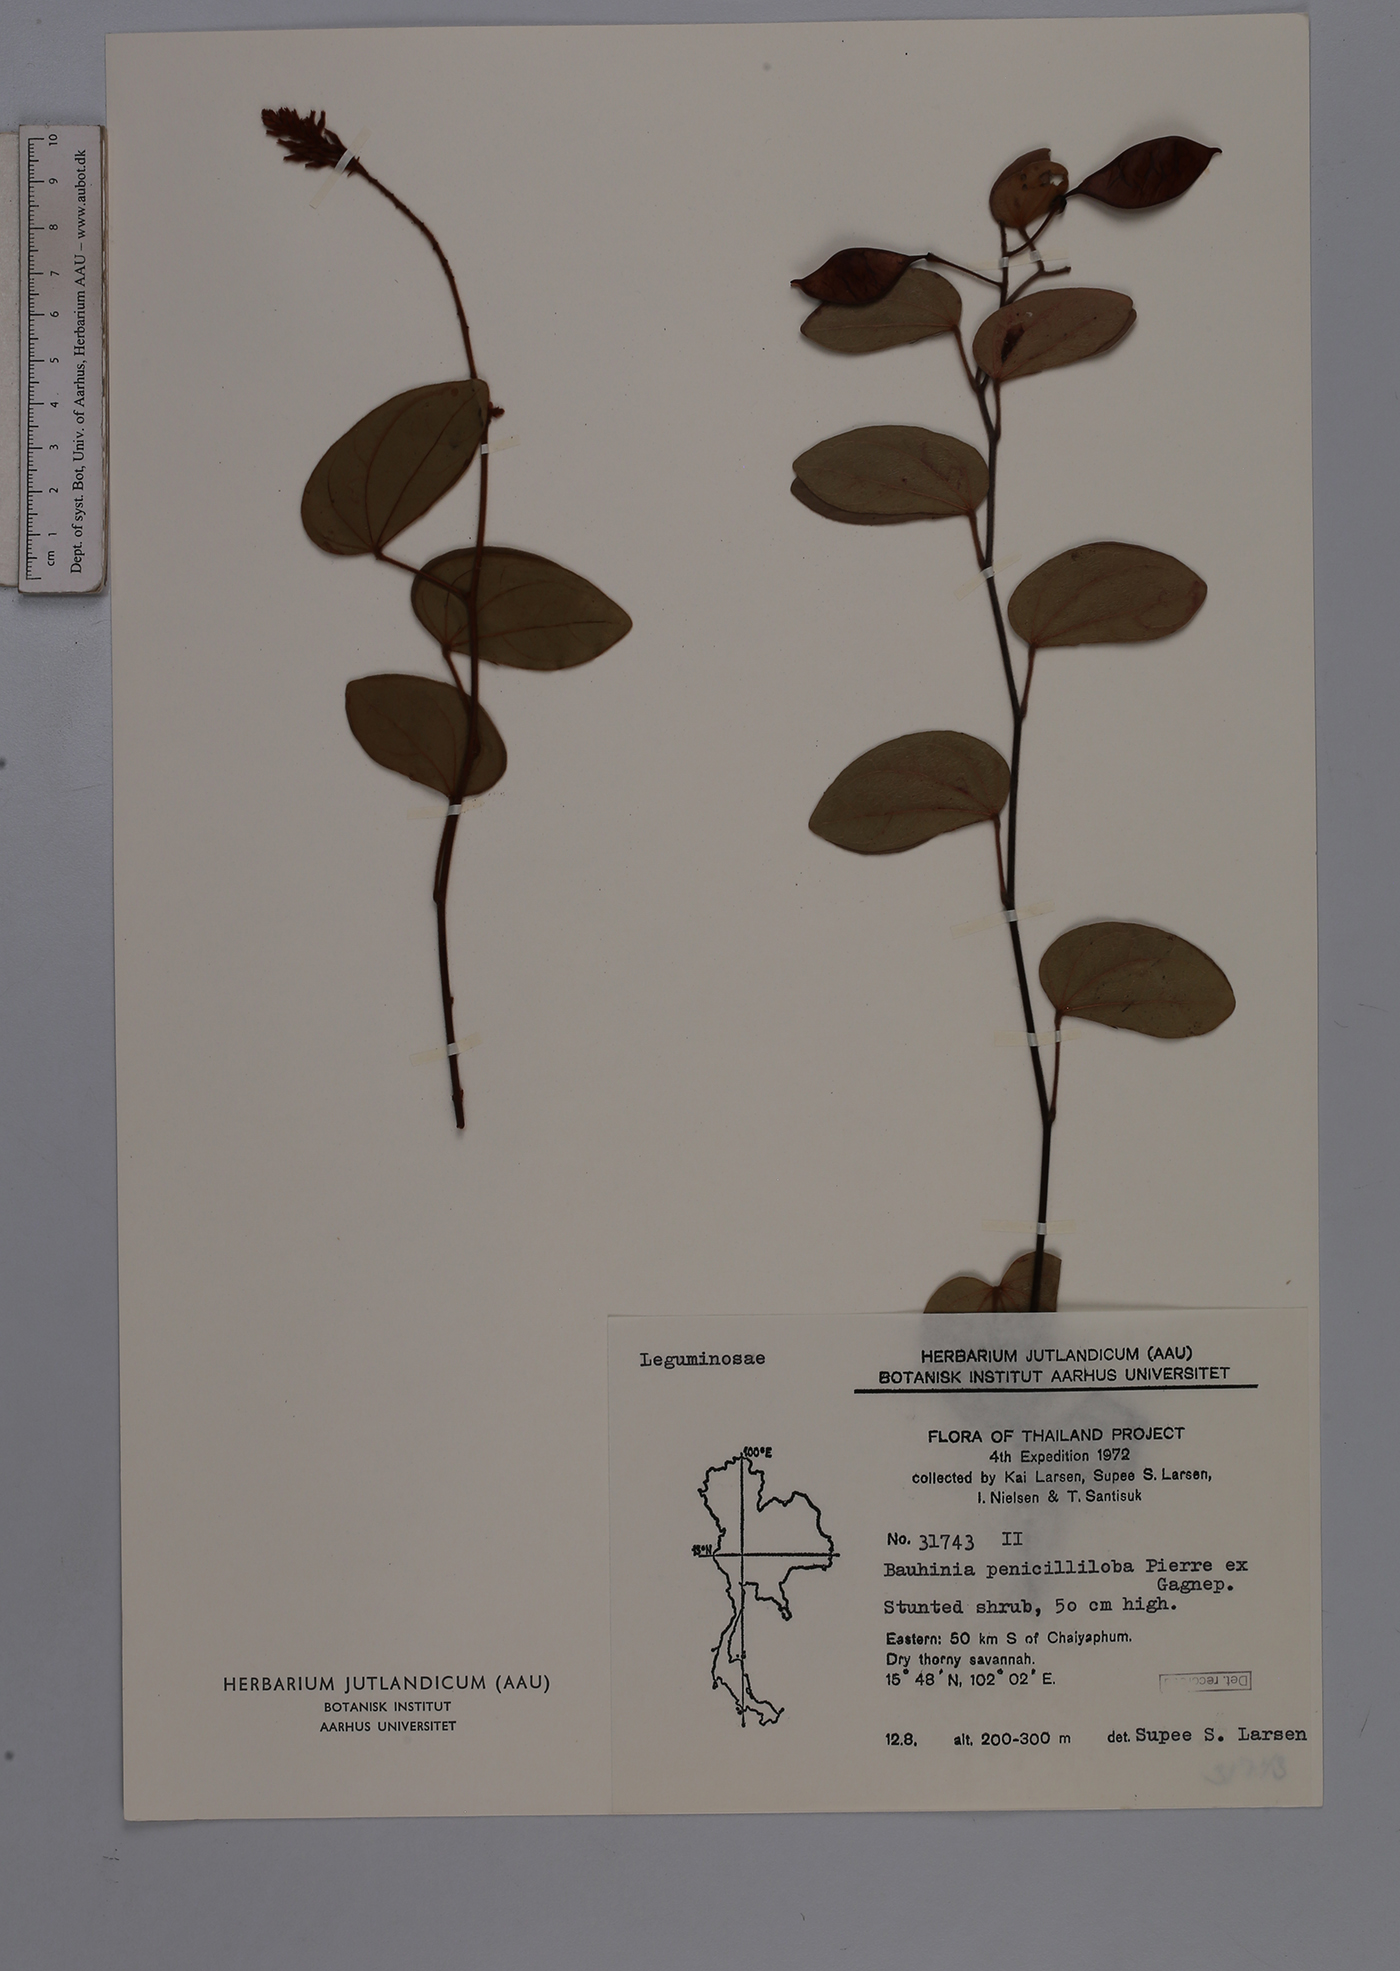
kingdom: Plantae
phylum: Tracheophyta
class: Magnoliopsida
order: Fabales
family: Fabaceae
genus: Phanera
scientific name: Phanera penicilliloba
